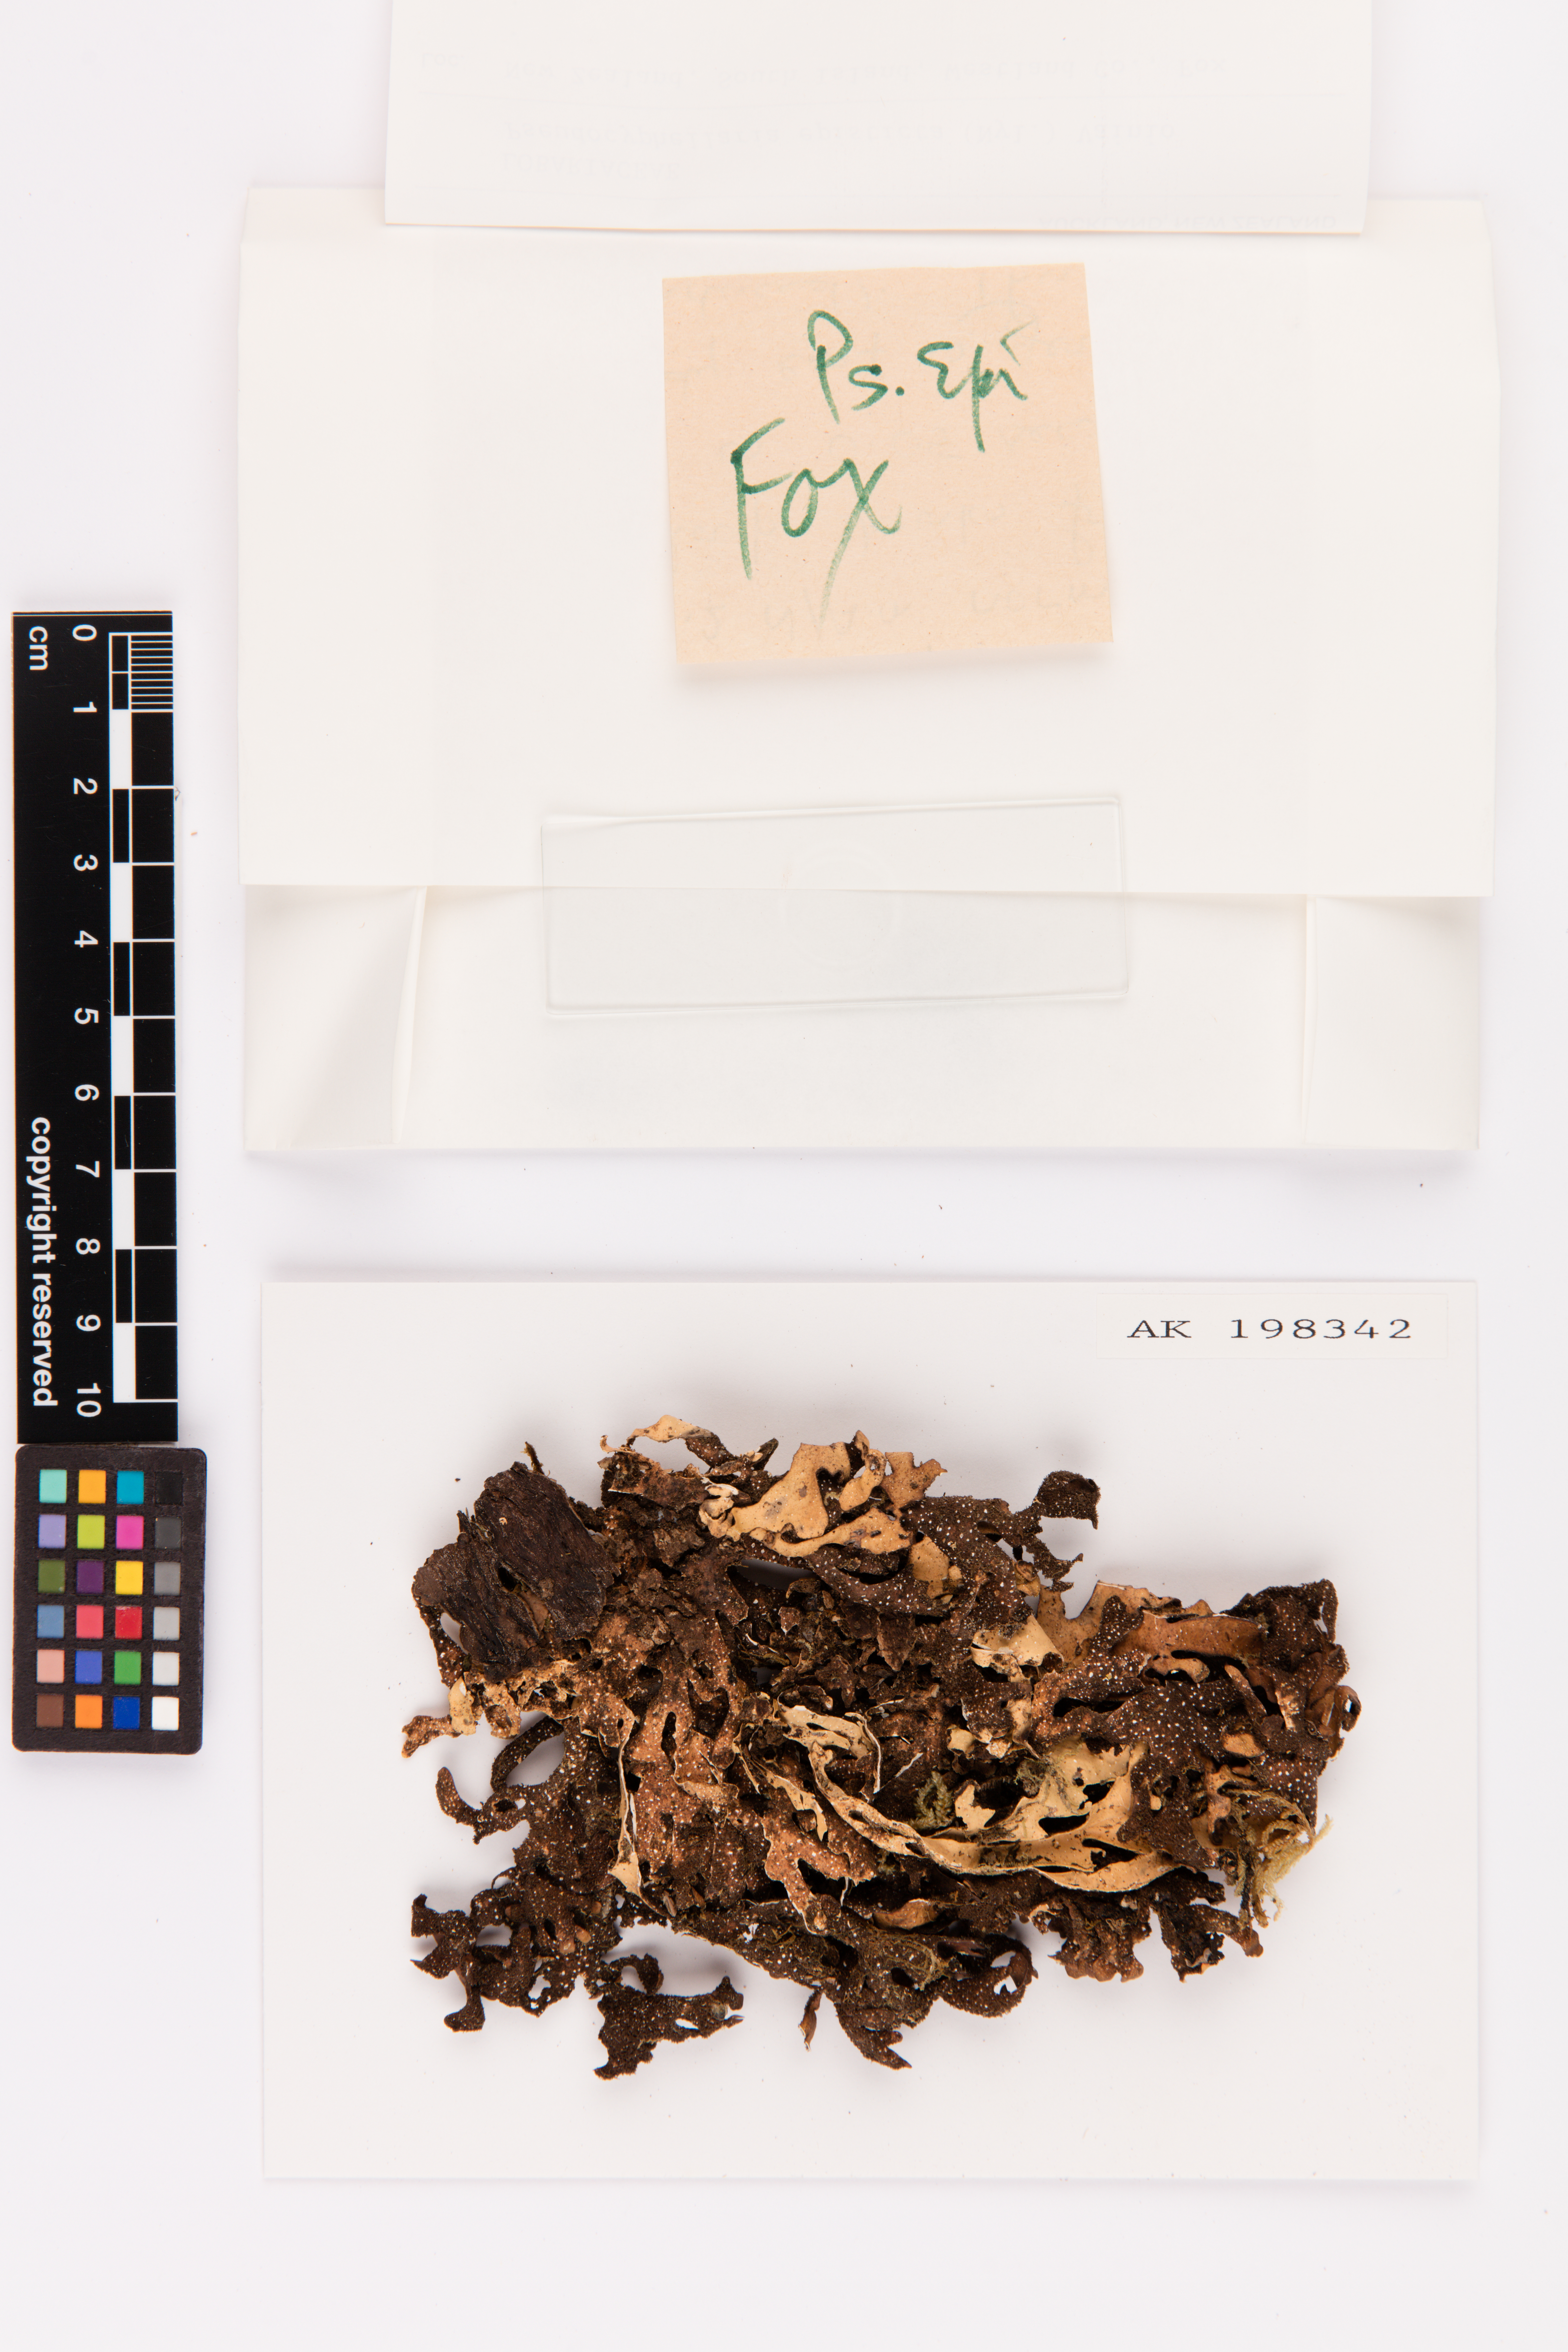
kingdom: Fungi
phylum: Ascomycota
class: Lecanoromycetes
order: Peltigerales
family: Lobariaceae
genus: Pseudocyphellaria
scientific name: Pseudocyphellaria episticta
